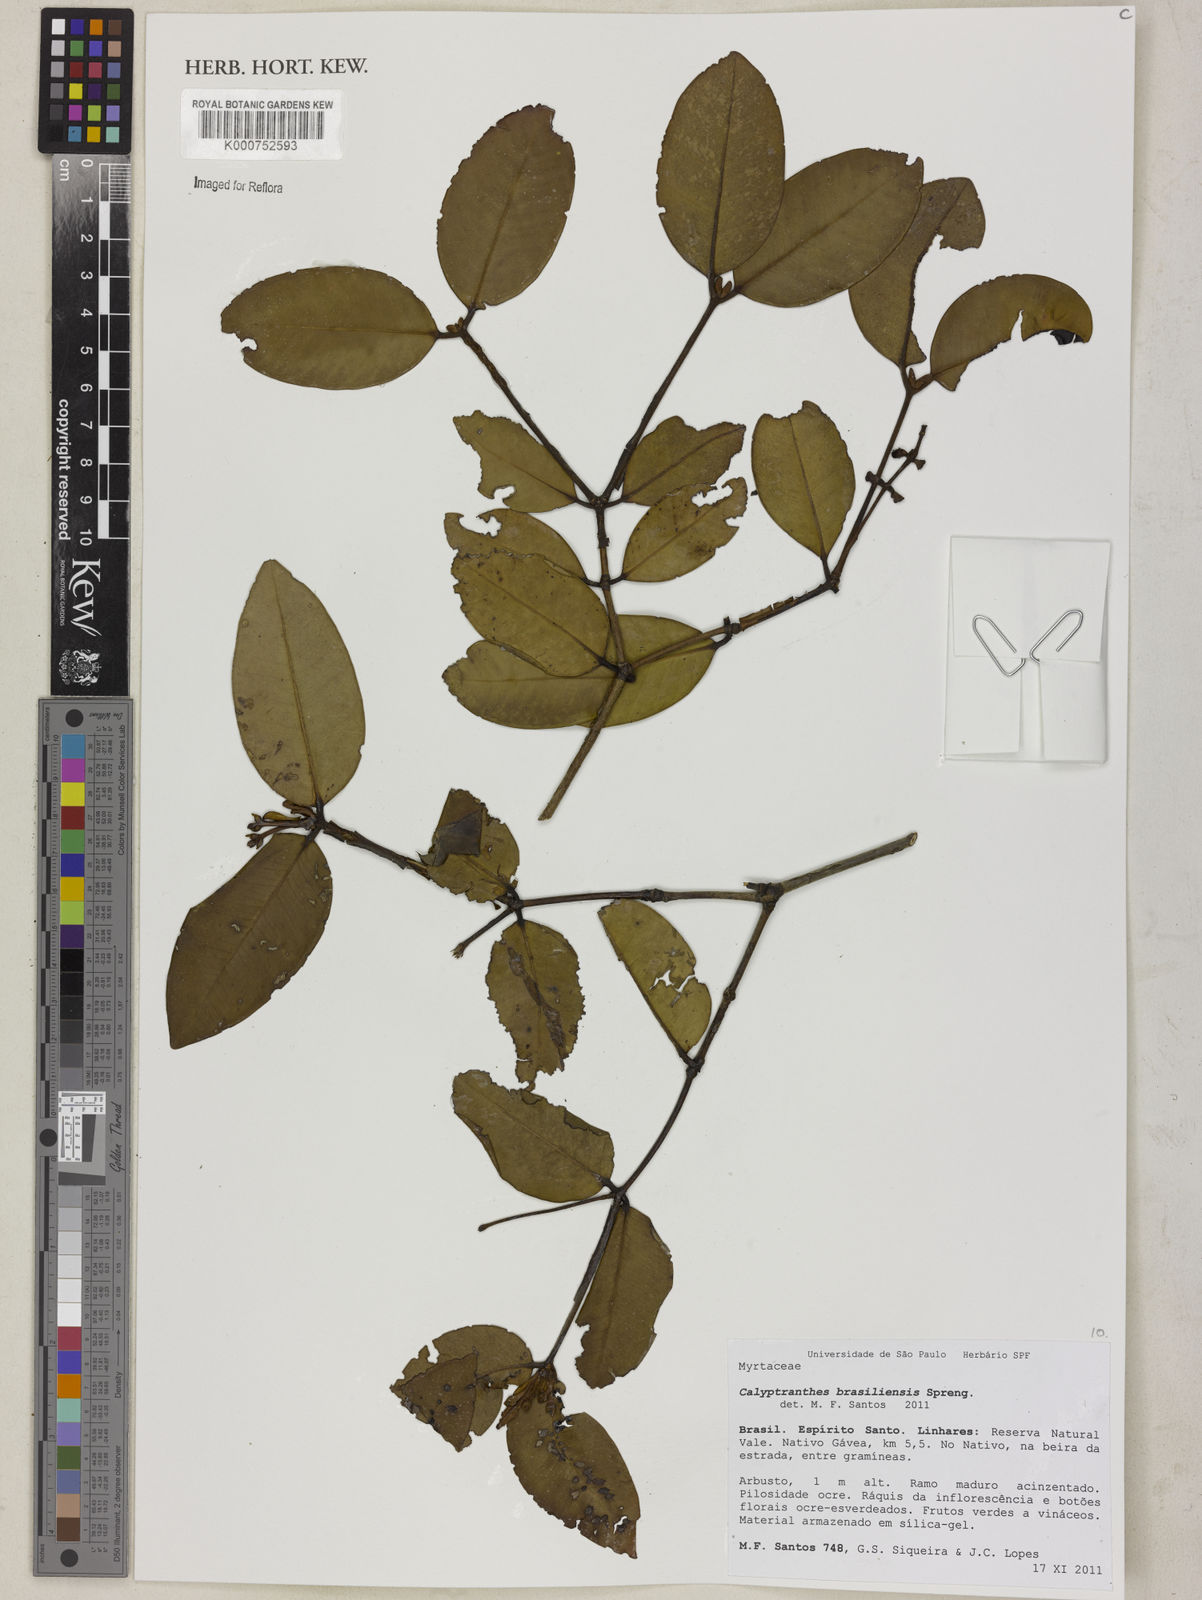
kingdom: Plantae
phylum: Tracheophyta
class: Magnoliopsida
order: Myrtales
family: Myrtaceae
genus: Myrcia
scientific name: Myrcia neobrasiliensis
